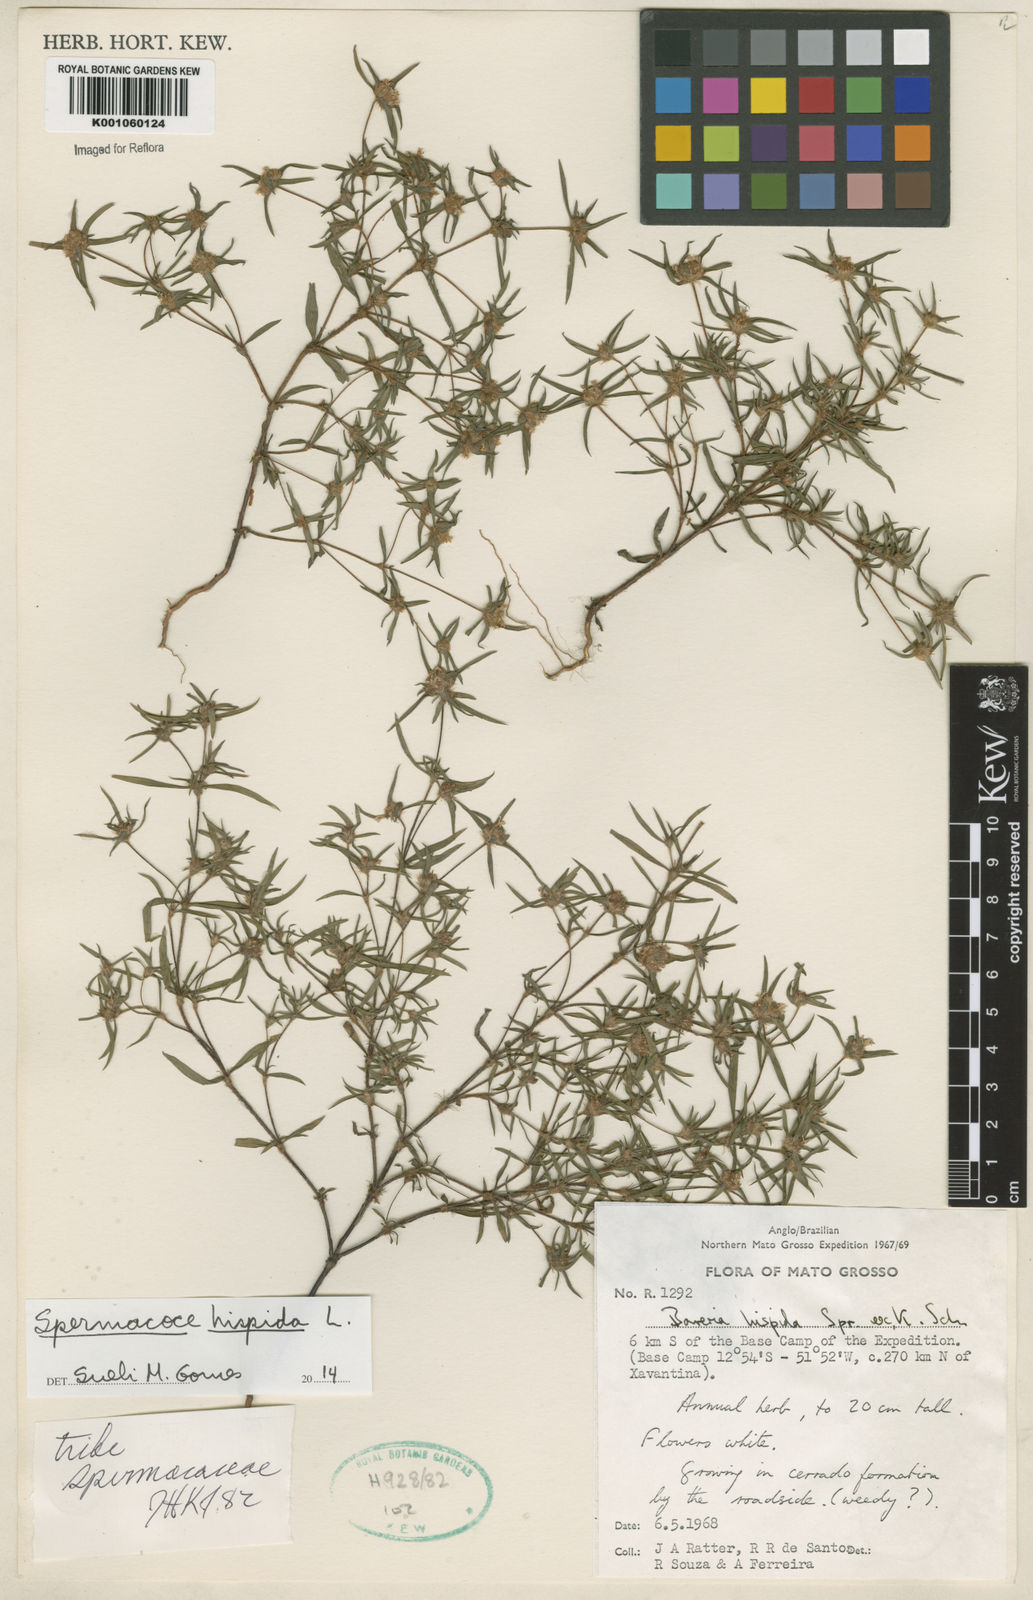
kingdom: Plantae
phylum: Tracheophyta
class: Magnoliopsida
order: Gentianales
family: Rubiaceae
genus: Spermacoce
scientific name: Spermacoce hispida
